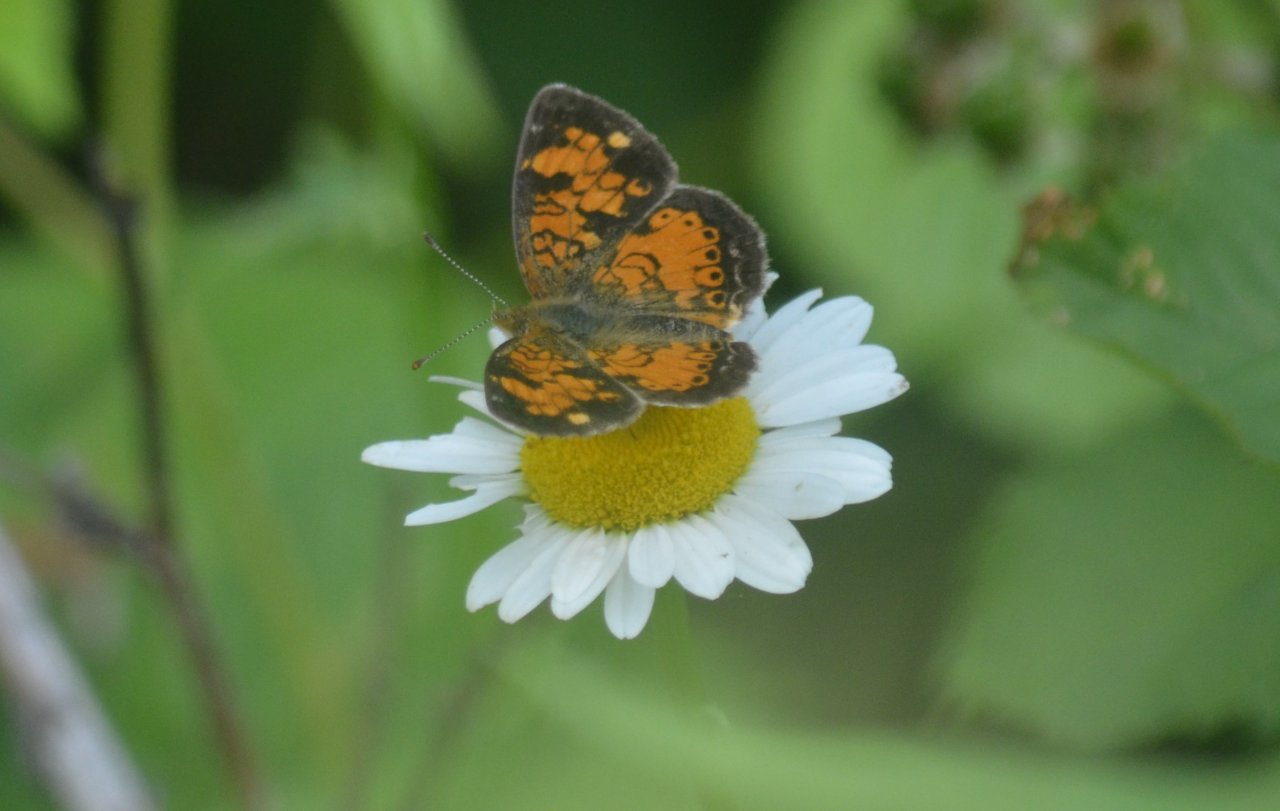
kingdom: Animalia
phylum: Arthropoda
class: Insecta
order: Lepidoptera
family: Nymphalidae
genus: Phyciodes
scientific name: Phyciodes tharos
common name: Northern Crescent
